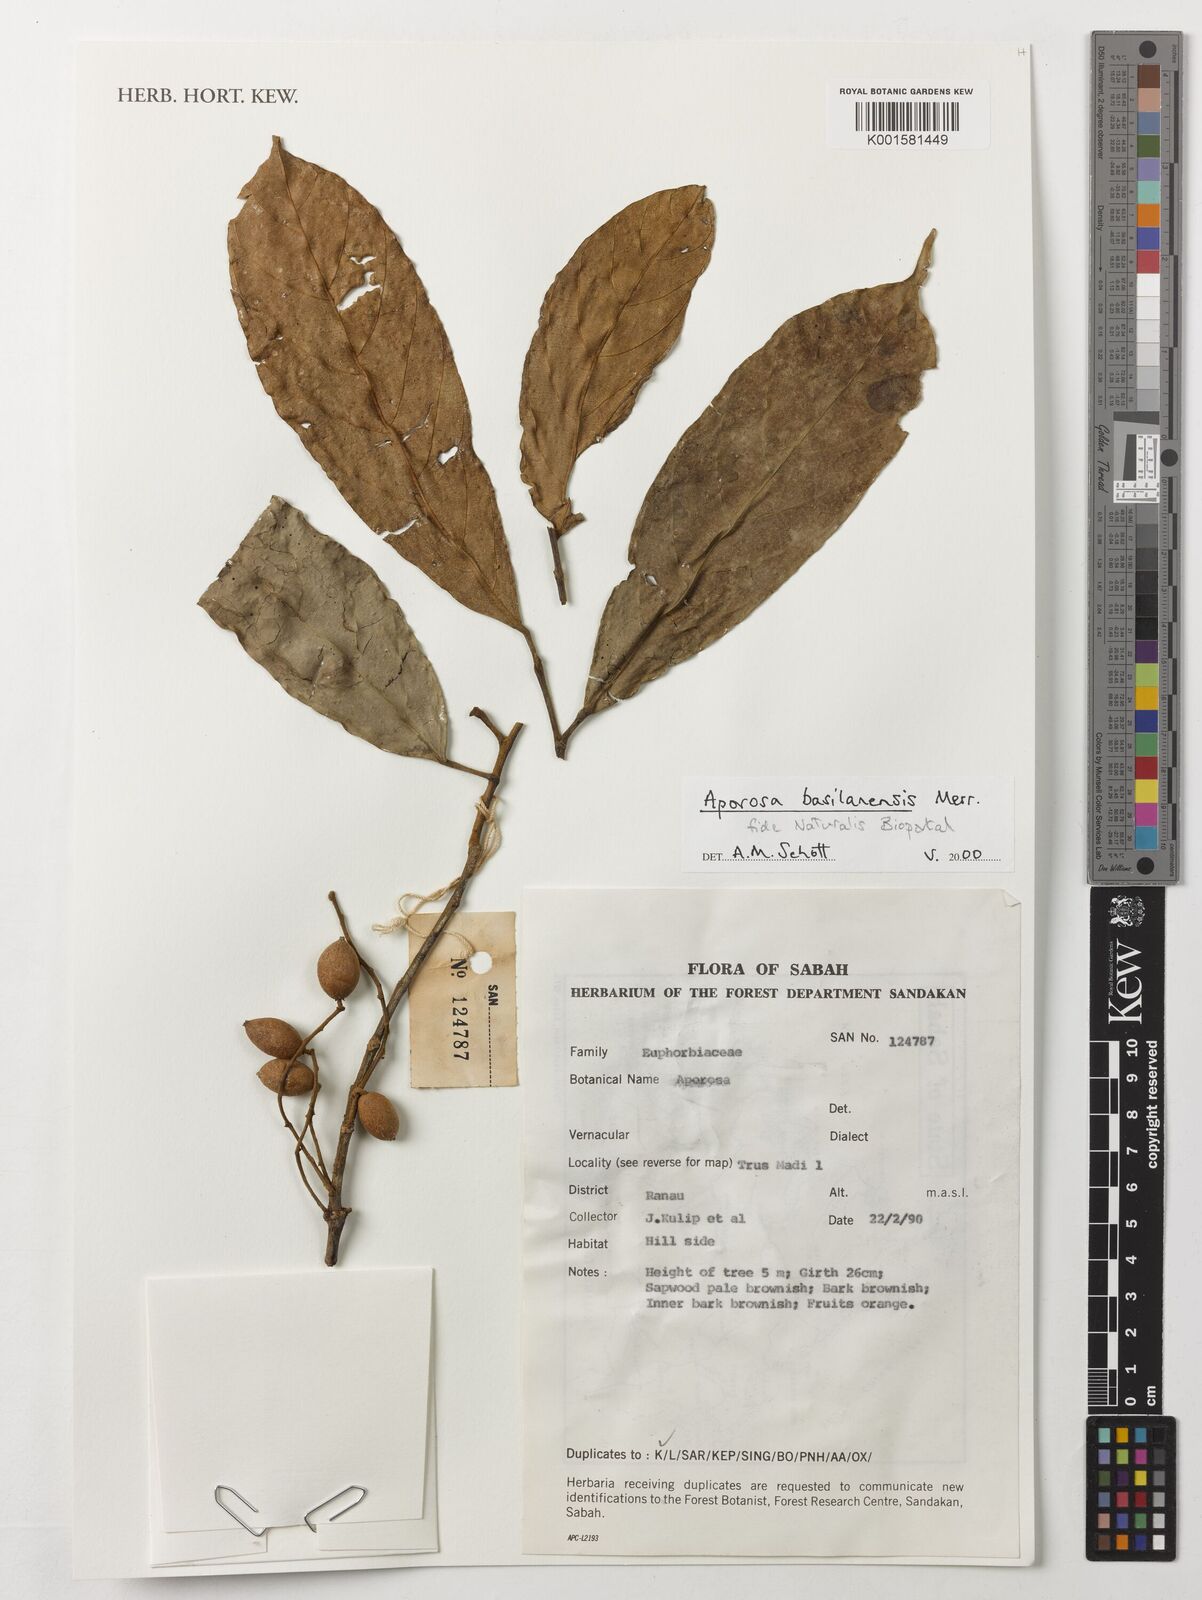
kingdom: Plantae
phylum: Tracheophyta
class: Magnoliopsida
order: Malpighiales
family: Phyllanthaceae
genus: Aporosa
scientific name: Aporosa basilanensis
